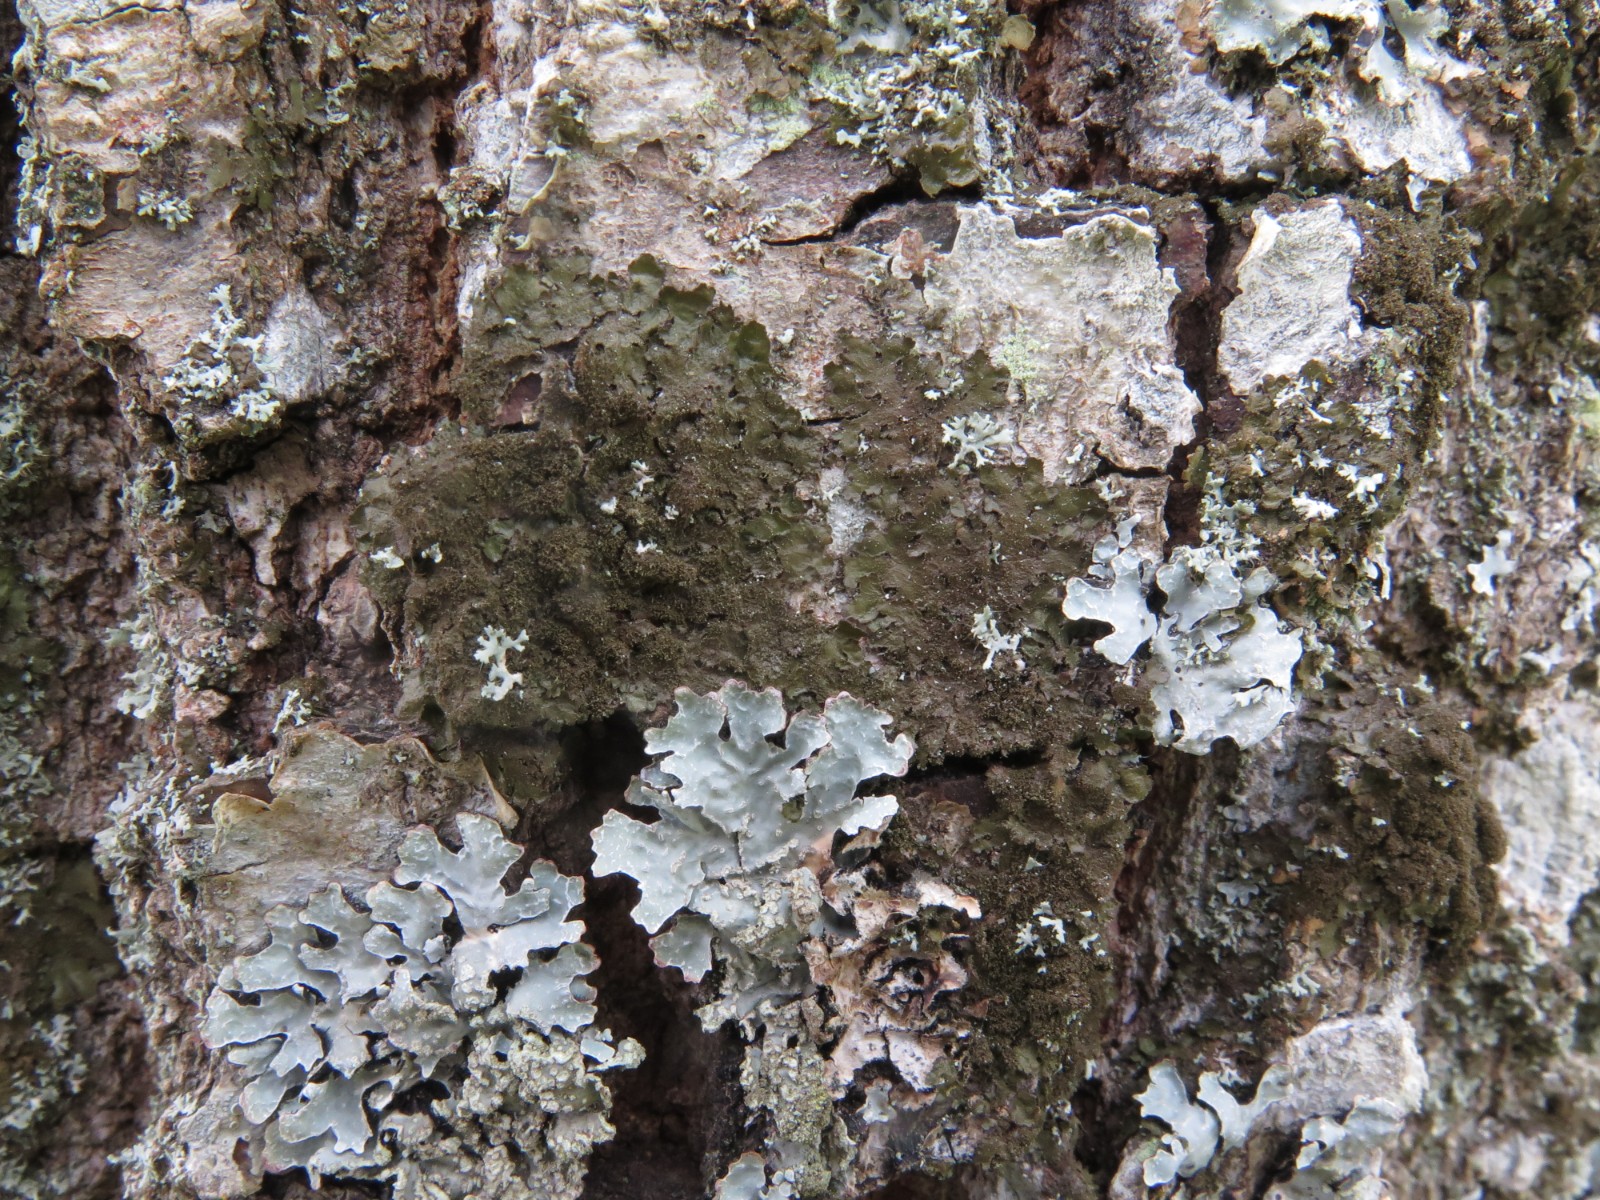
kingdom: Fungi
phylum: Ascomycota
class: Lecanoromycetes
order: Lecanorales
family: Parmeliaceae
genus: Melanelixia
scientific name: Melanelixia subaurifera
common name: guldpudret skållav
